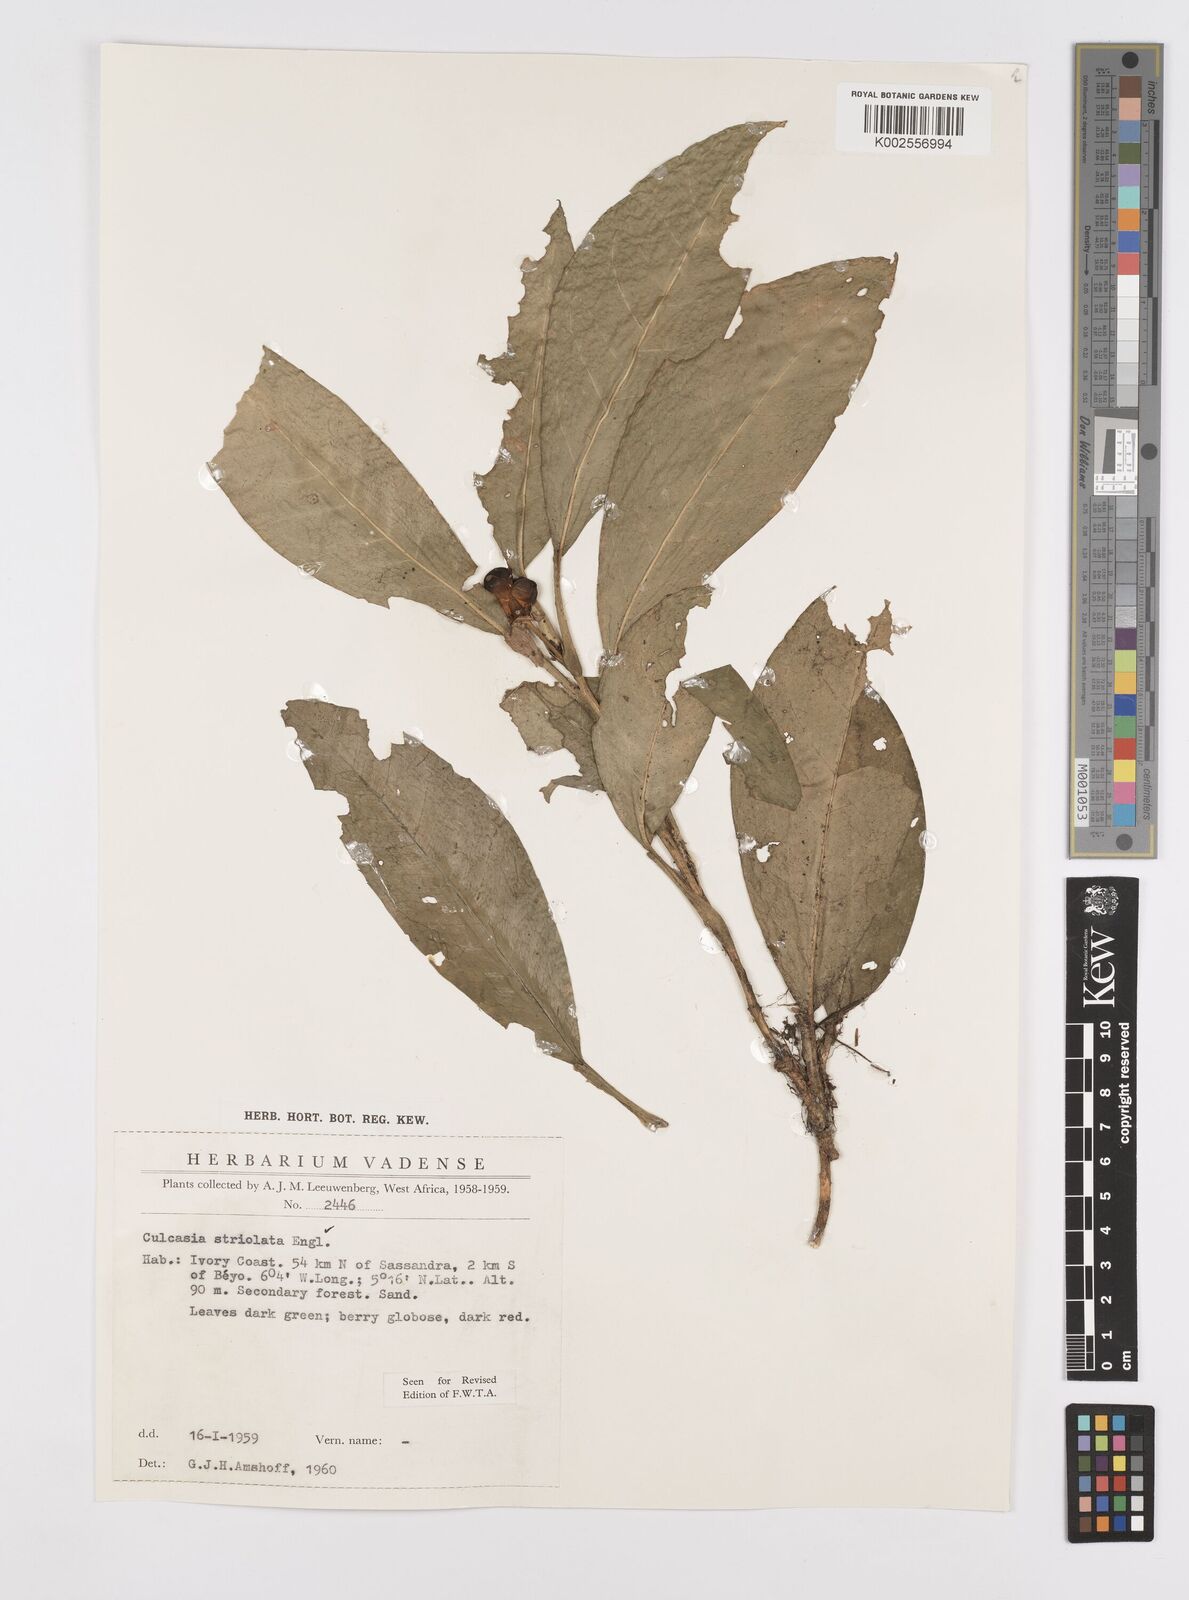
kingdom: Plantae
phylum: Tracheophyta
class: Liliopsida
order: Alismatales
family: Araceae
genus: Culcasia
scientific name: Culcasia striolata
